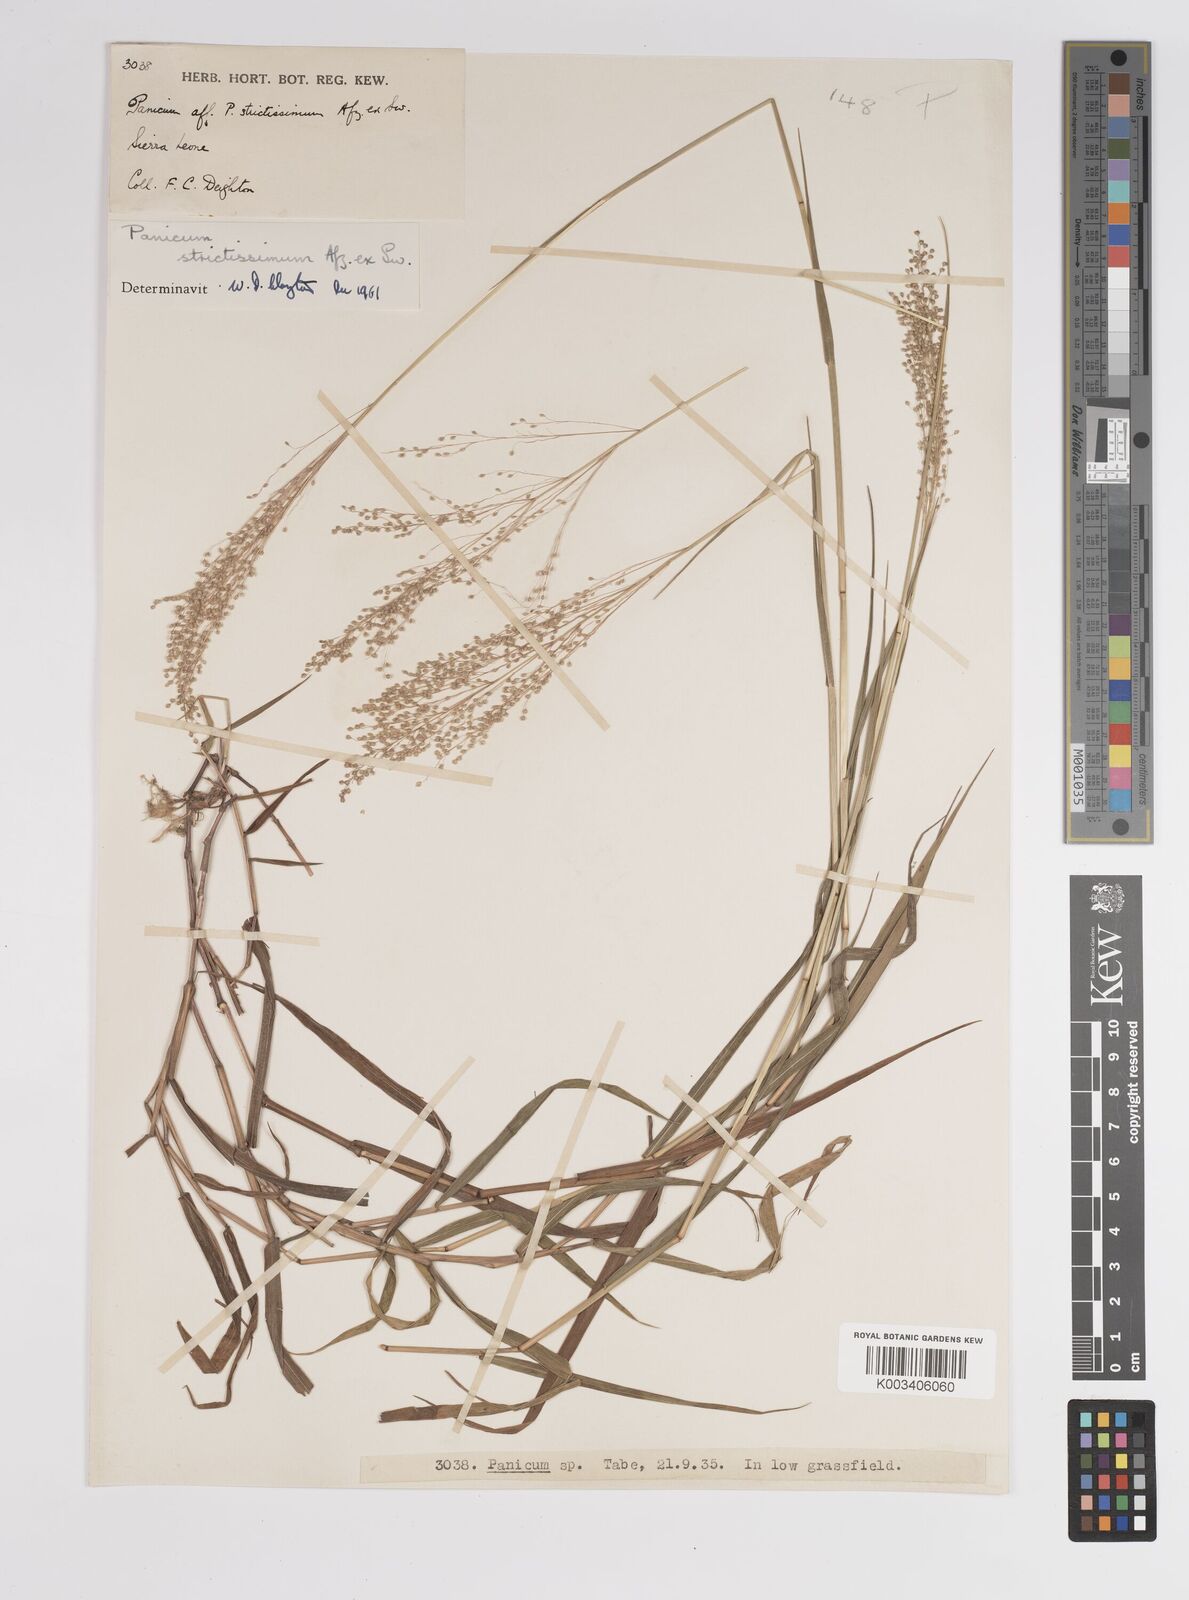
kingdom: Plantae
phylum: Tracheophyta
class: Liliopsida
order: Poales
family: Poaceae
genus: Trichanthecium
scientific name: Trichanthecium strictissimum
